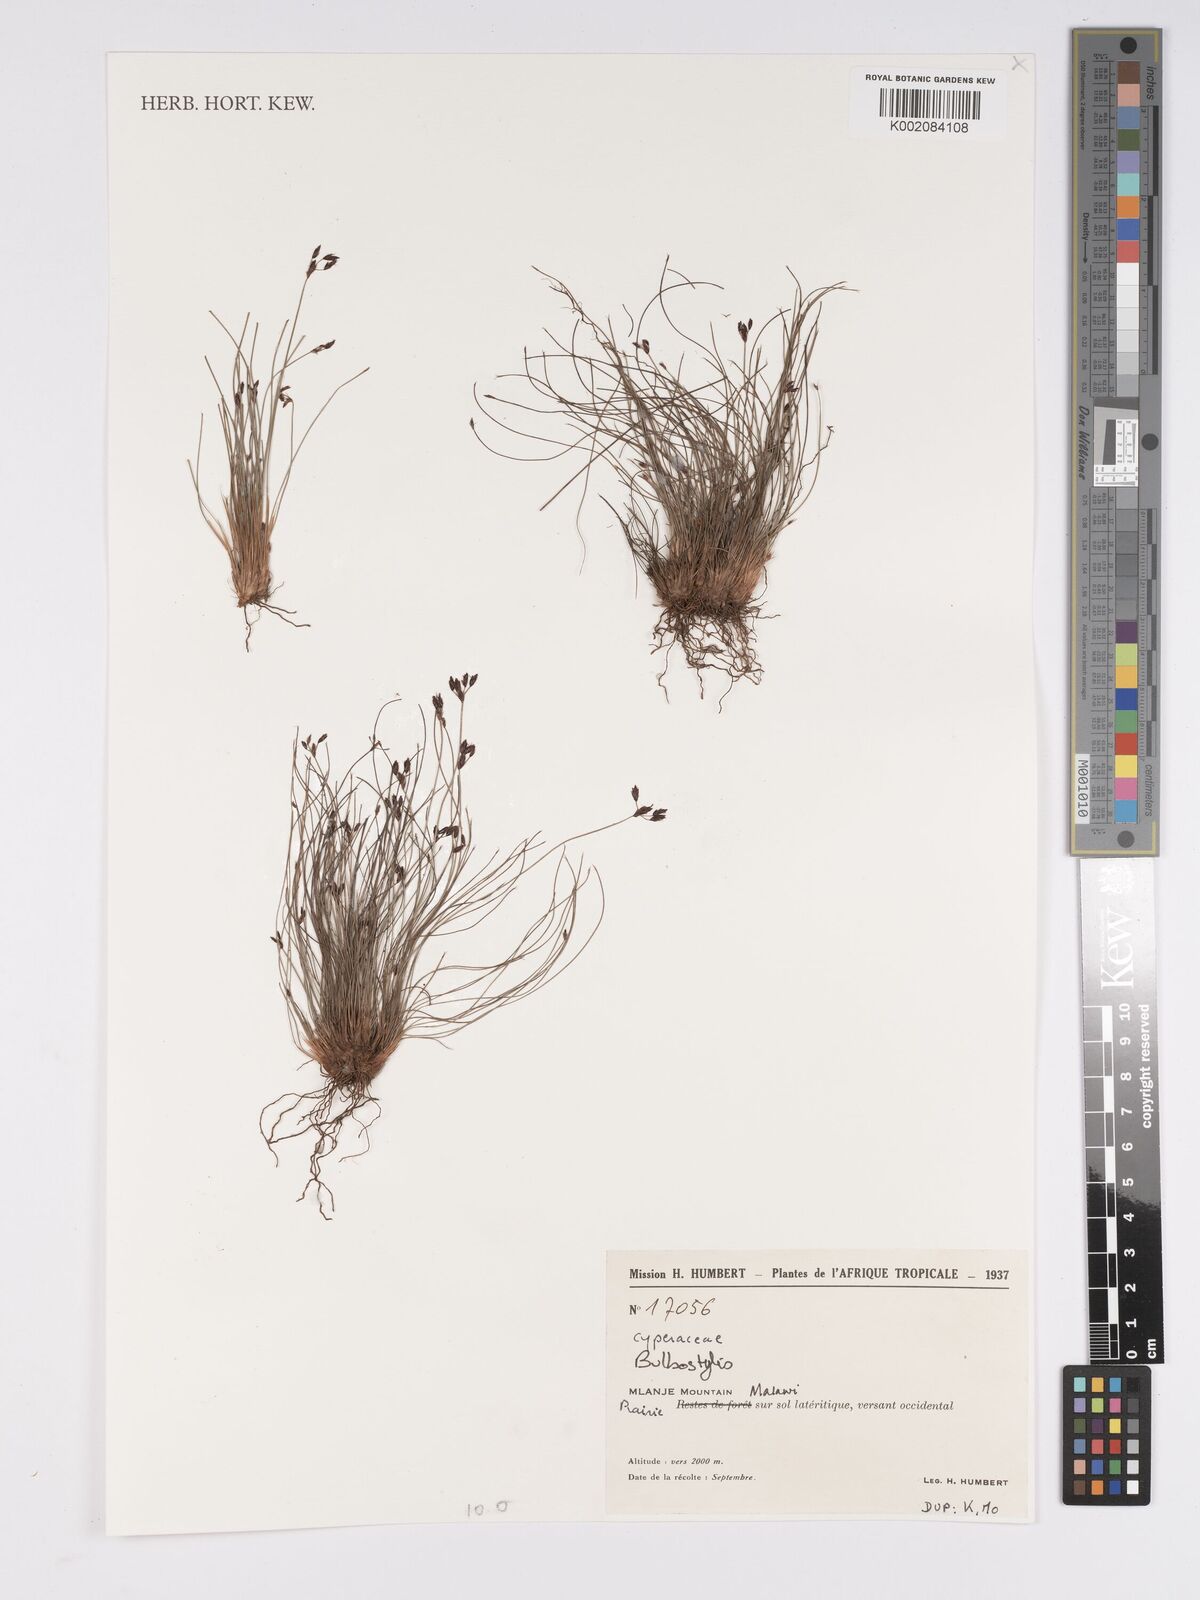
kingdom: Plantae
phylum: Tracheophyta
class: Liliopsida
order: Poales
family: Cyperaceae
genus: Bulbostylis
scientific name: Bulbostylis
